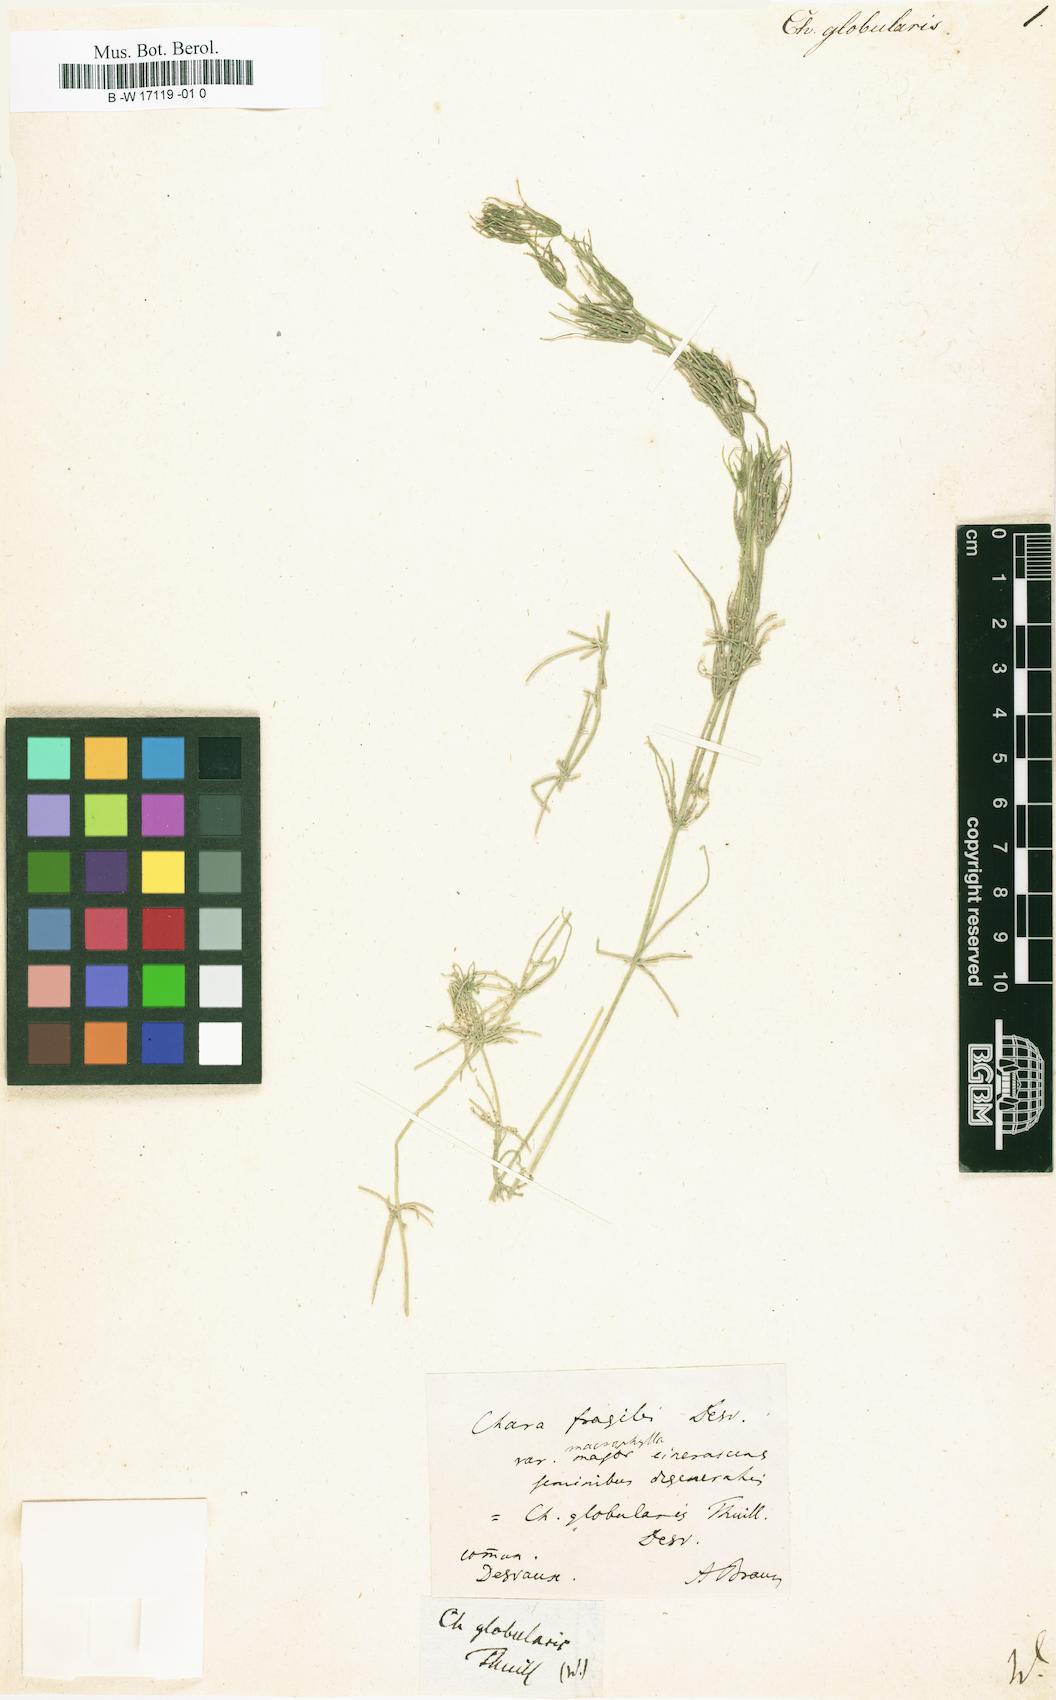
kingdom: Plantae
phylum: Charophyta
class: Charophyceae
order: Charales
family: Characeae
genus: Chara
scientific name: Chara globularis
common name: Fragile stonewort
